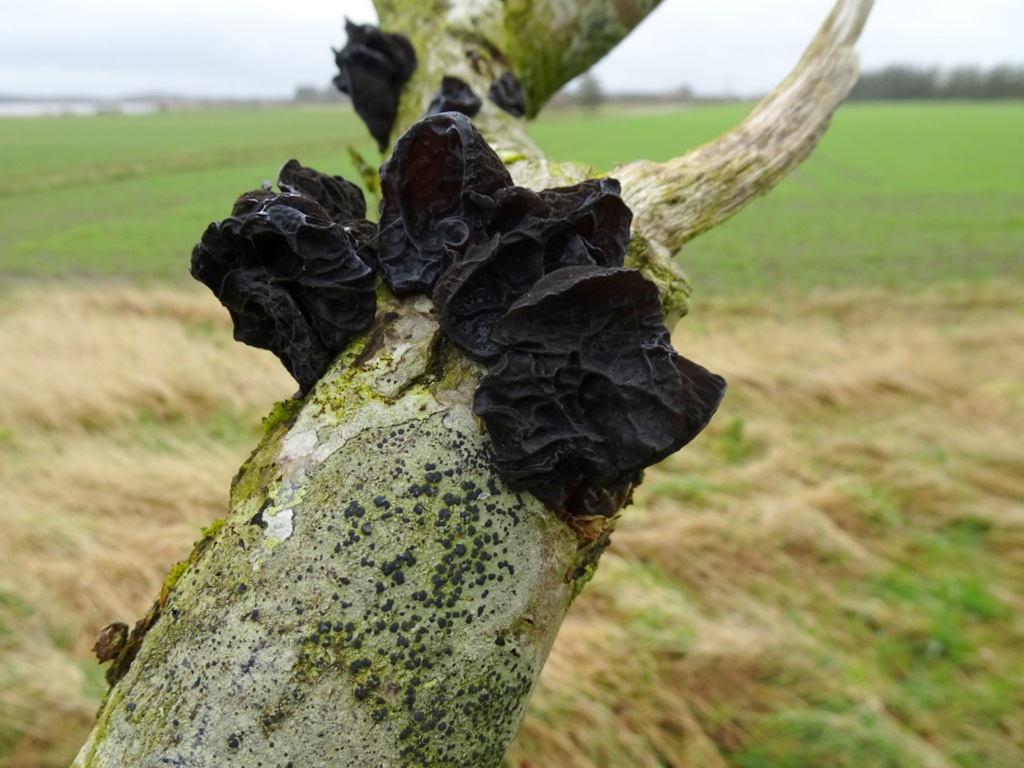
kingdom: Fungi
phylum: Basidiomycota
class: Agaricomycetes
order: Auriculariales
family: Auriculariaceae
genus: Exidia
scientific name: Exidia glandulosa
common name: ege-bævretop
